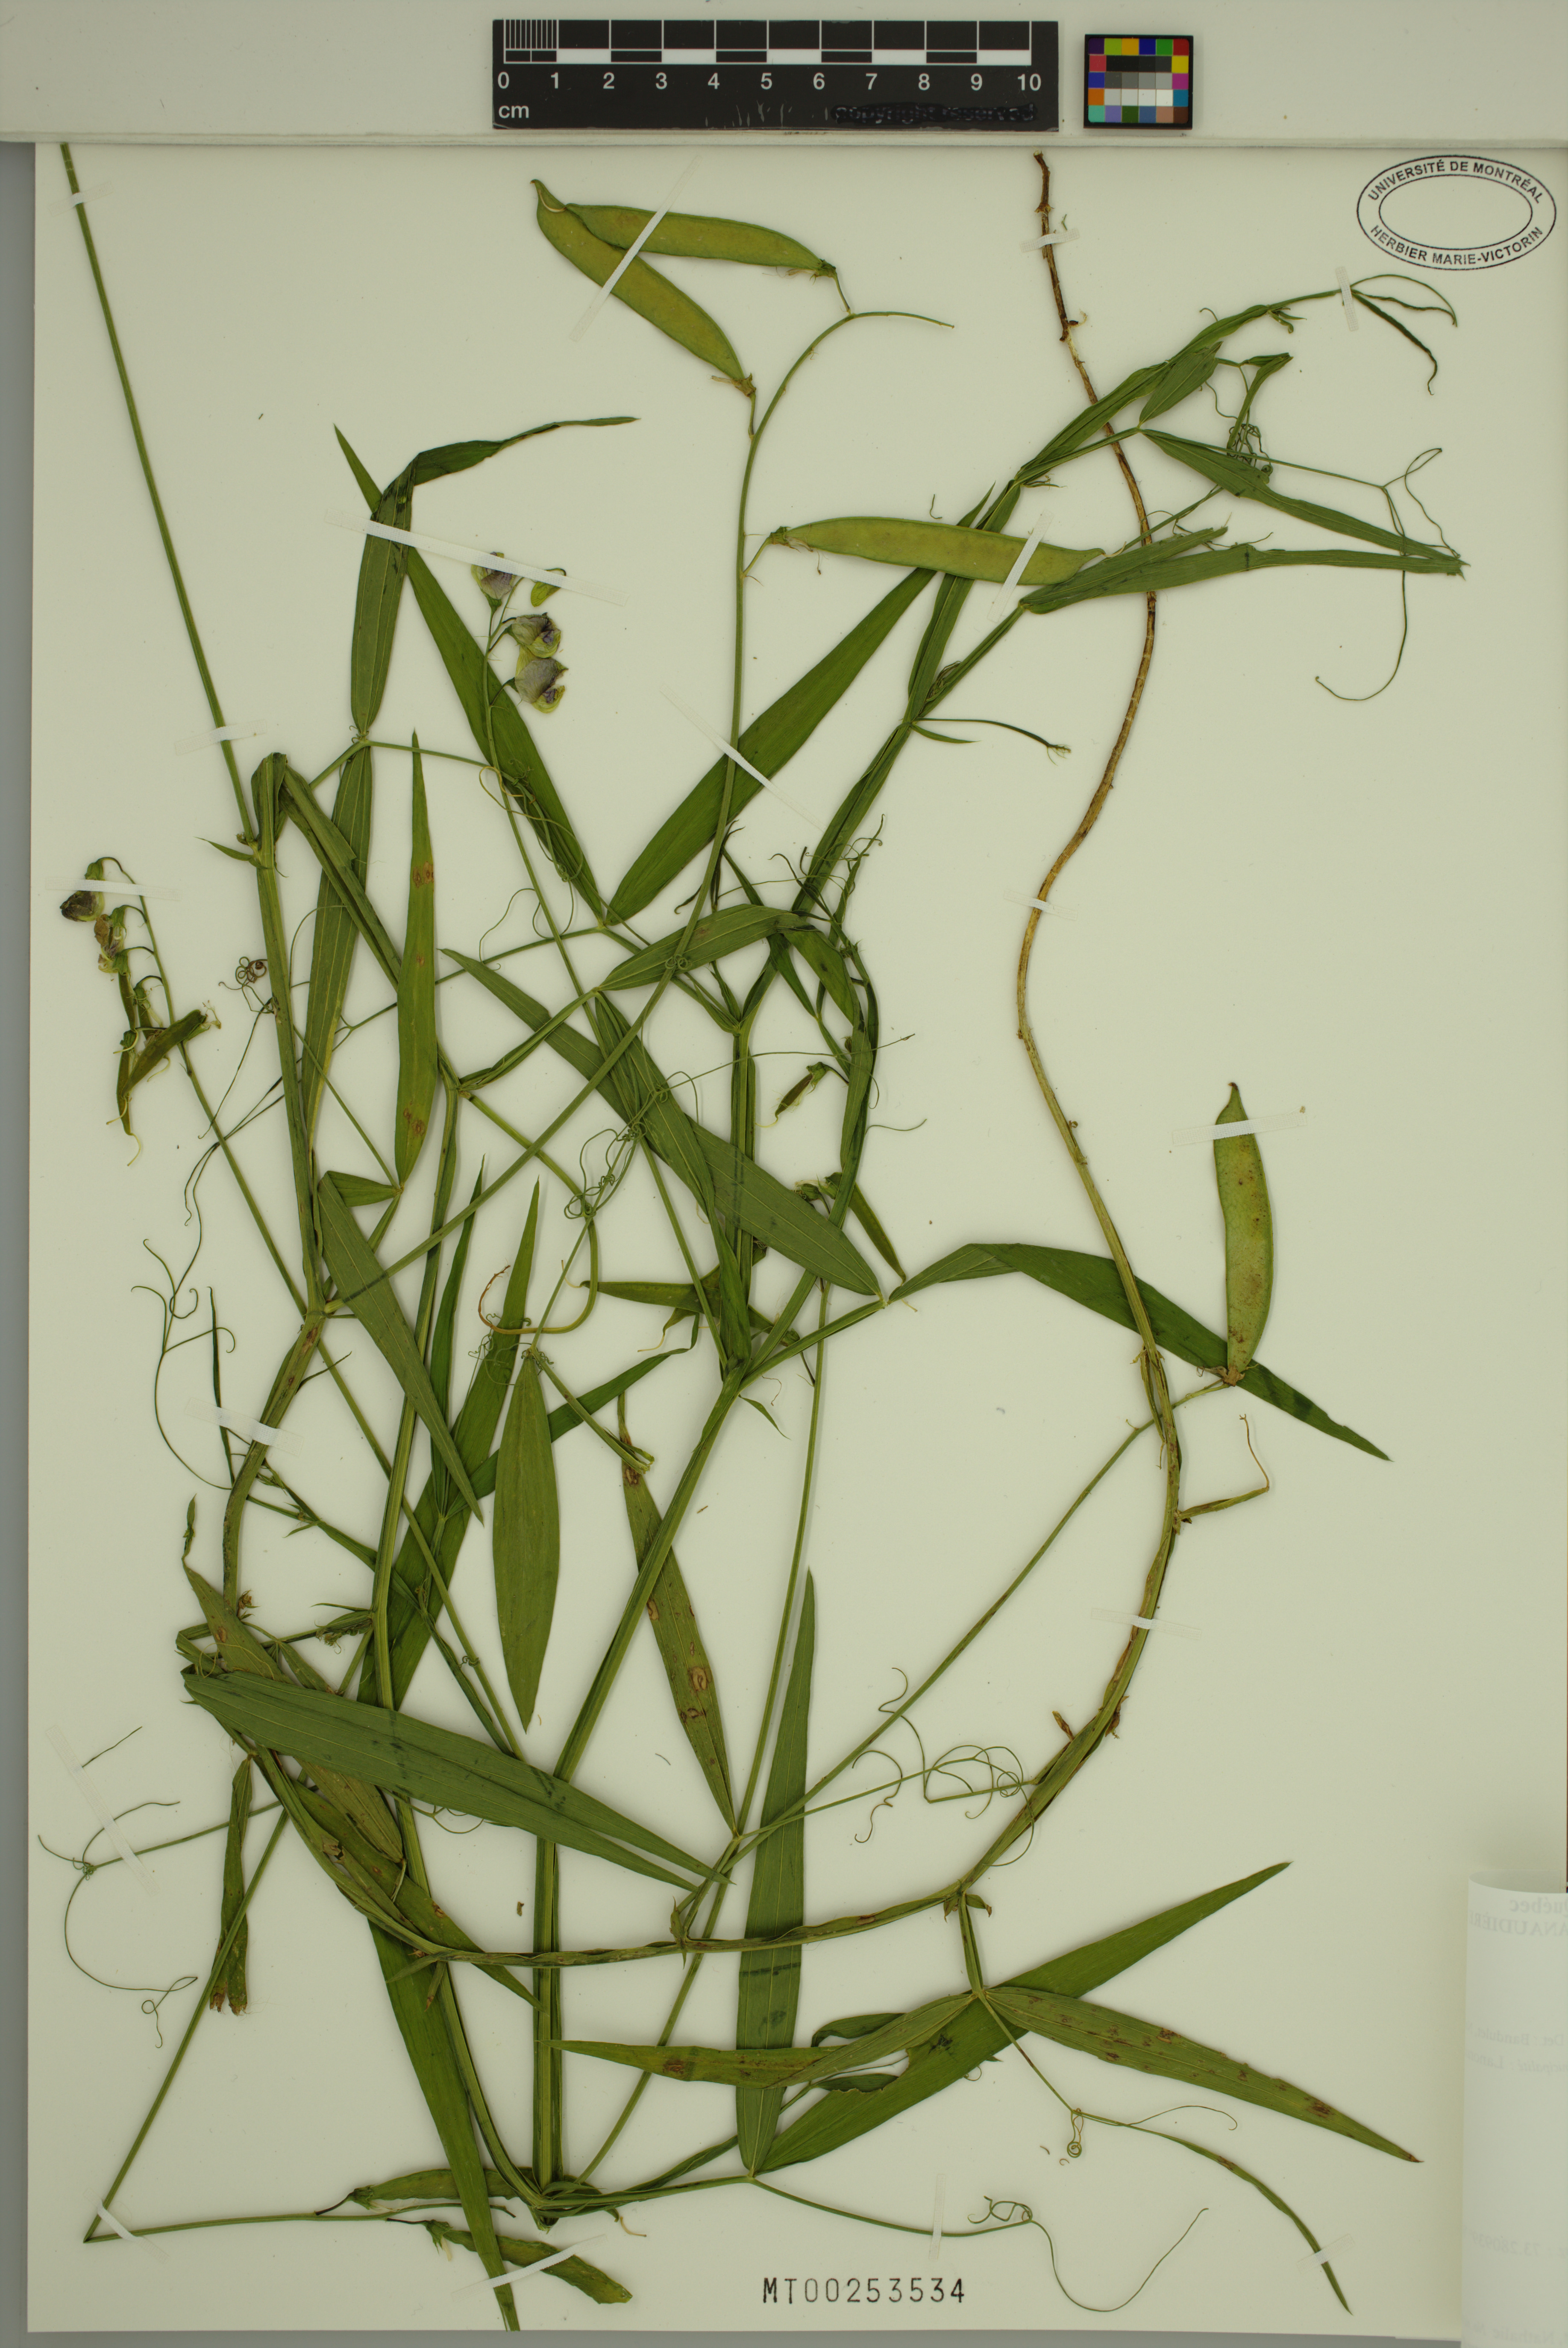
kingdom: Plantae
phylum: Tracheophyta
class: Magnoliopsida
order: Fabales
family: Fabaceae
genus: Lathyrus
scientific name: Lathyrus latifolius
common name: Perennial pea
